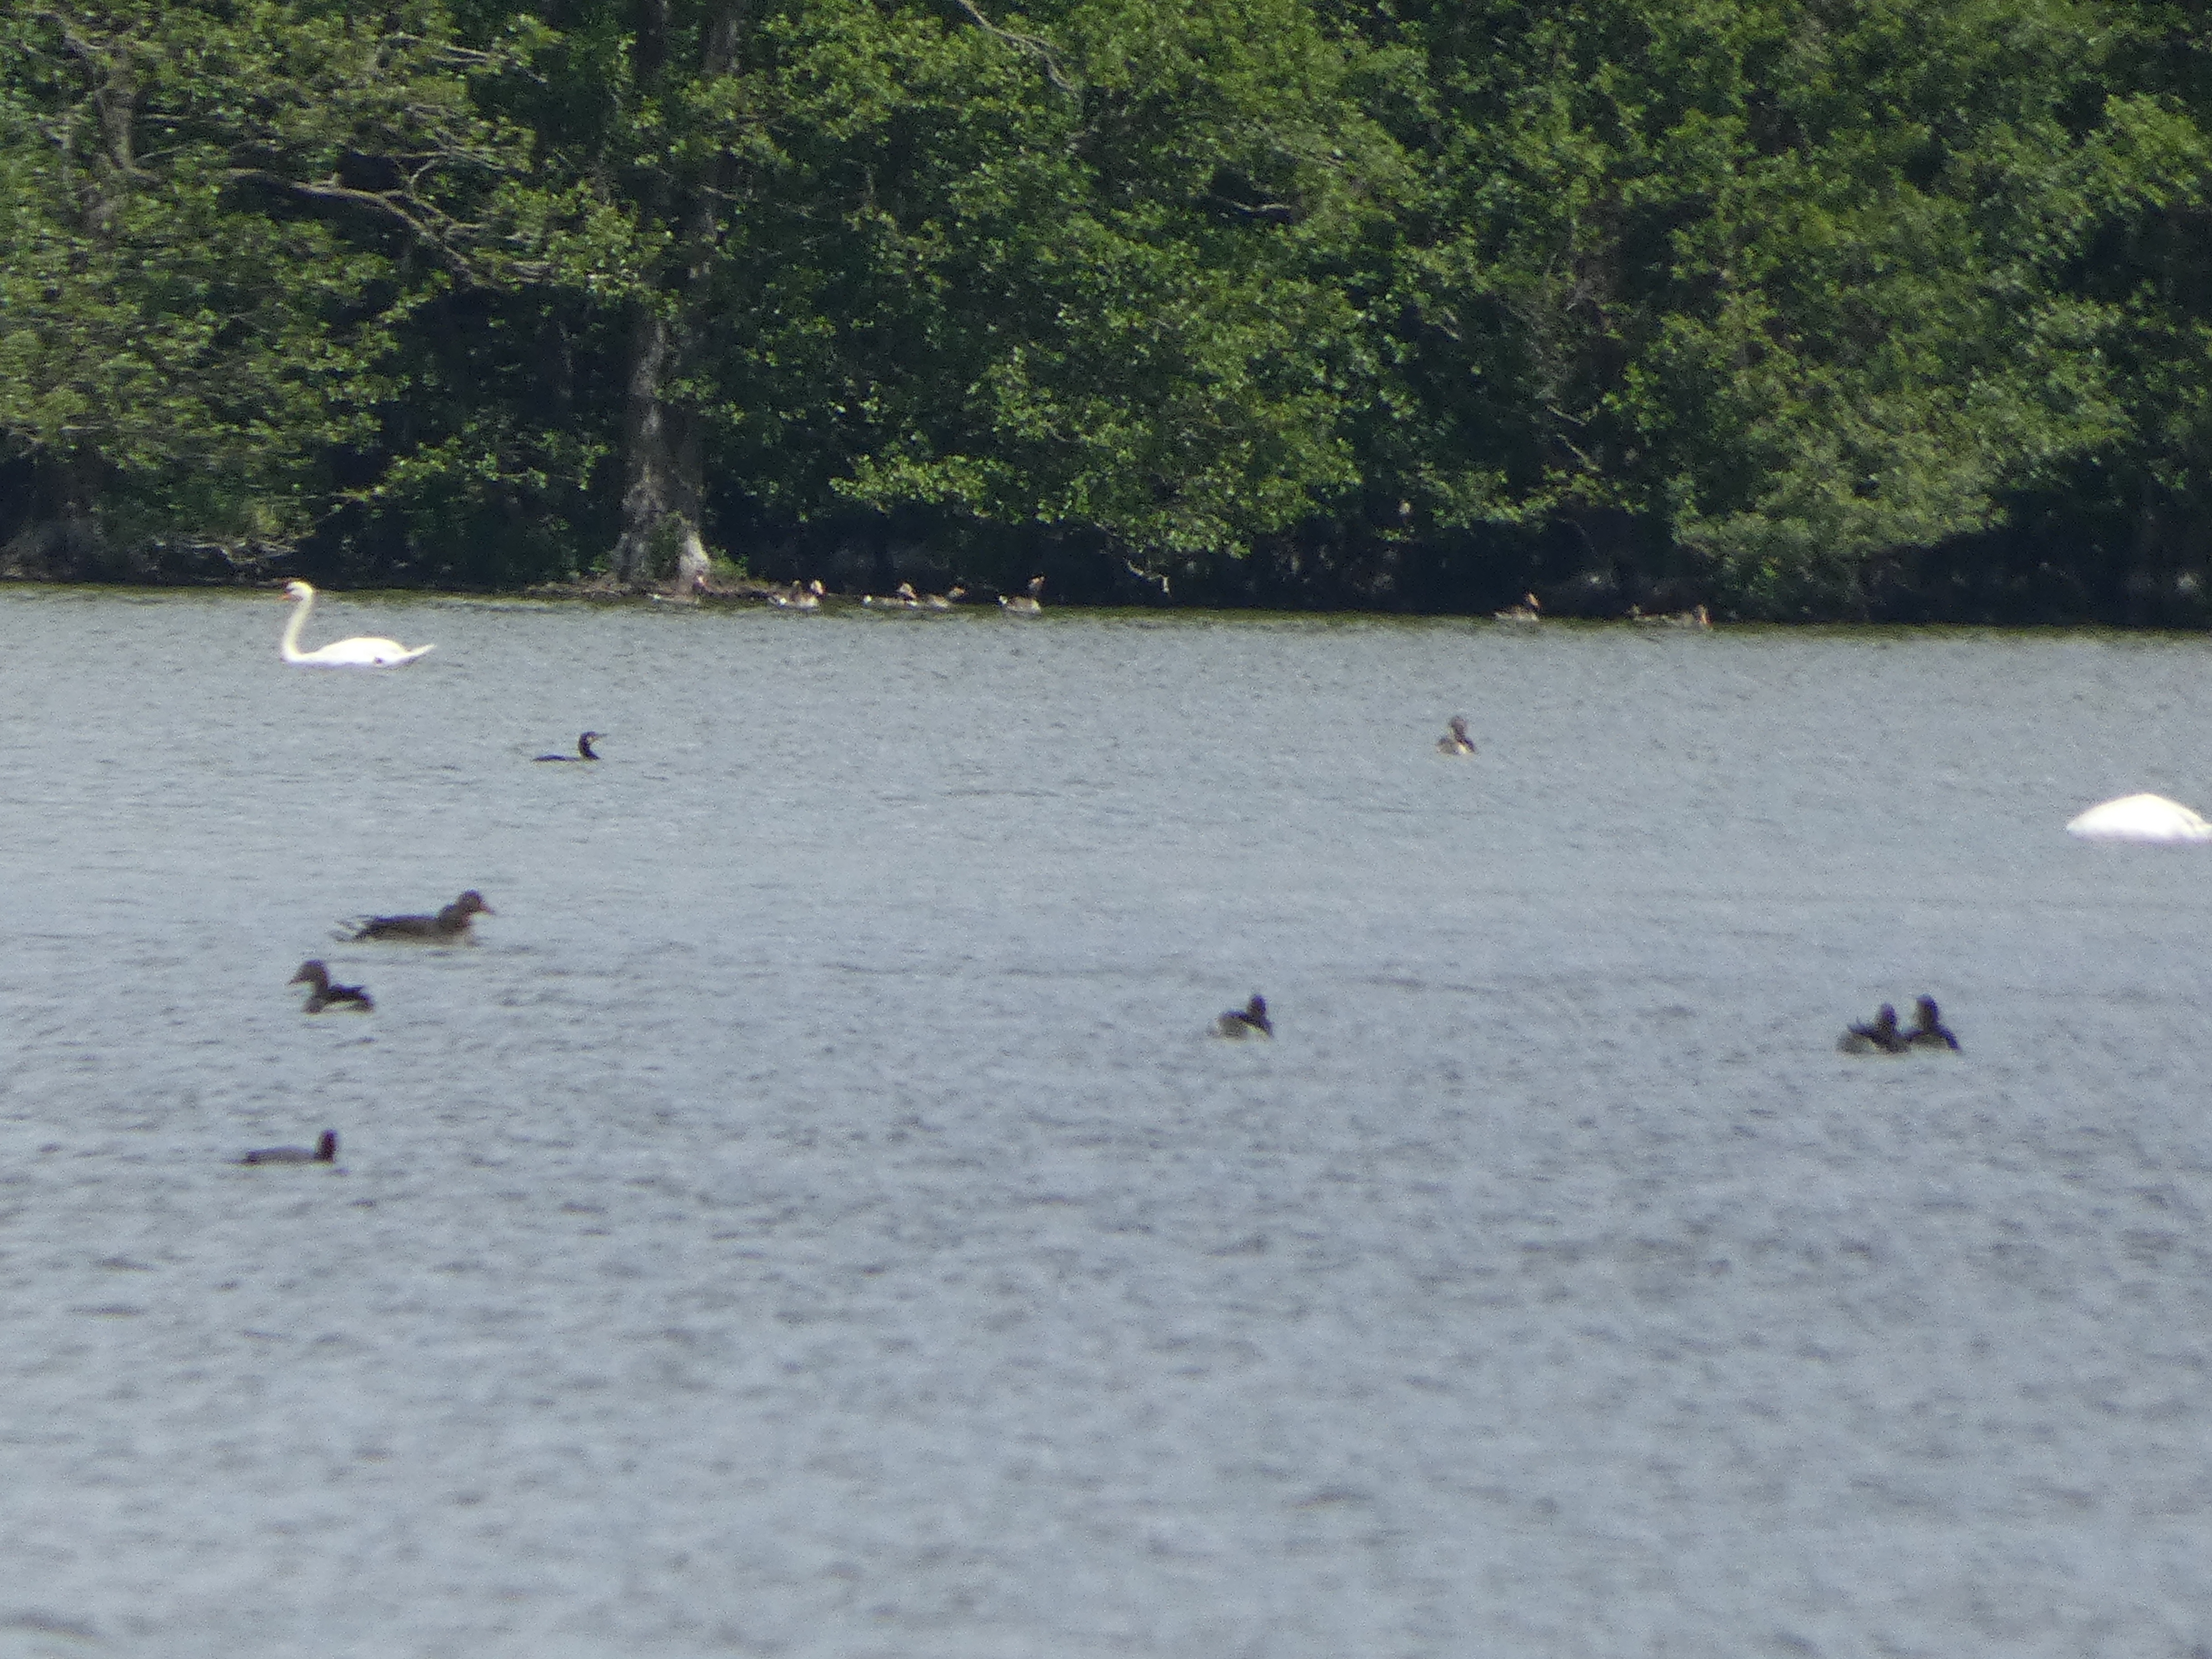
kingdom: Animalia
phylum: Chordata
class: Aves
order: Suliformes
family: Phalacrocoracidae
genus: Phalacrocorax
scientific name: Phalacrocorax carbo
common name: Skarv
